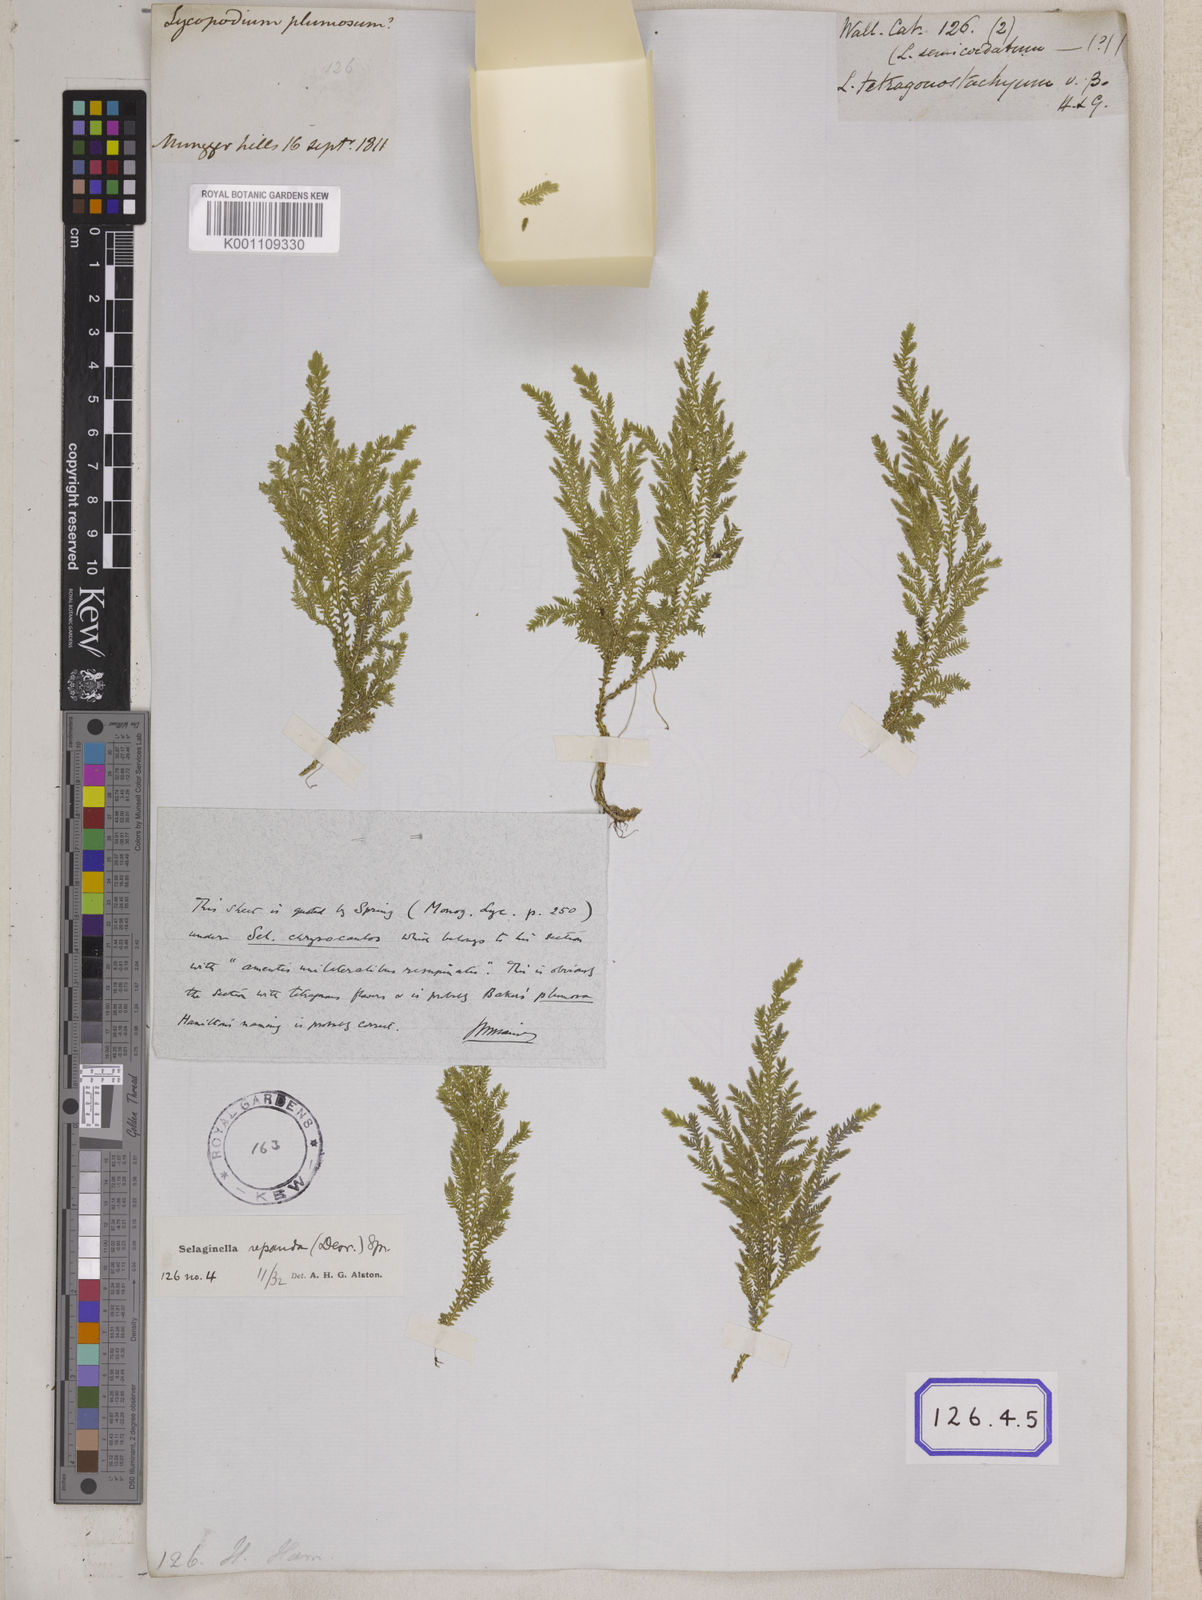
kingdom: Plantae
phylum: Tracheophyta
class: Lycopodiopsida
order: Selaginellales
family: Selaginellaceae
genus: Selaginella
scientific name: Selaginella semicordata
